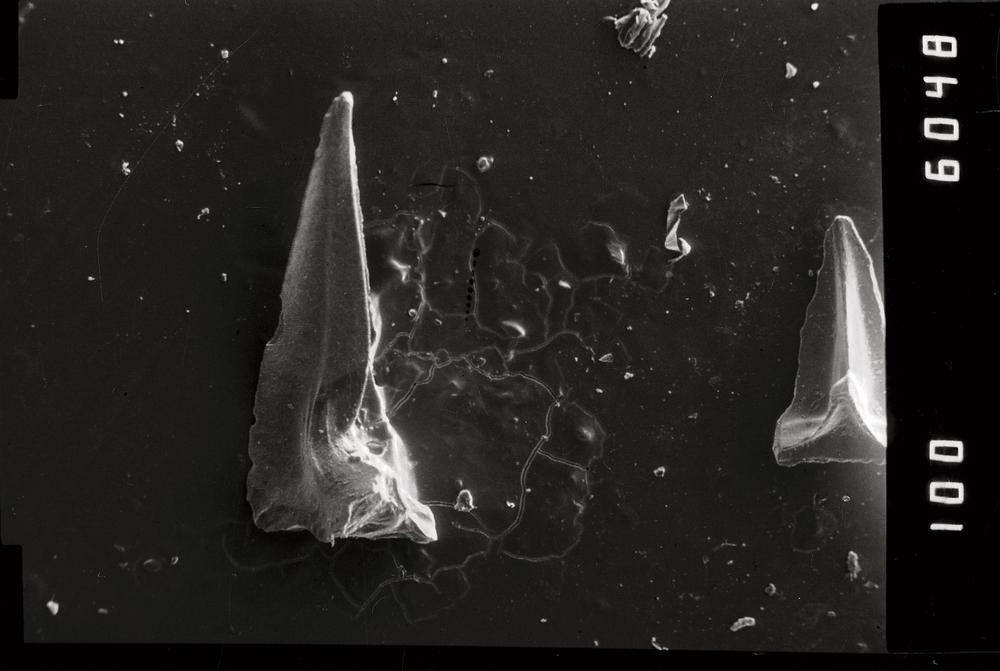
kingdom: Animalia
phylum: Chordata
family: Acodontidae
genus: Tripodus
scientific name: Tripodus
